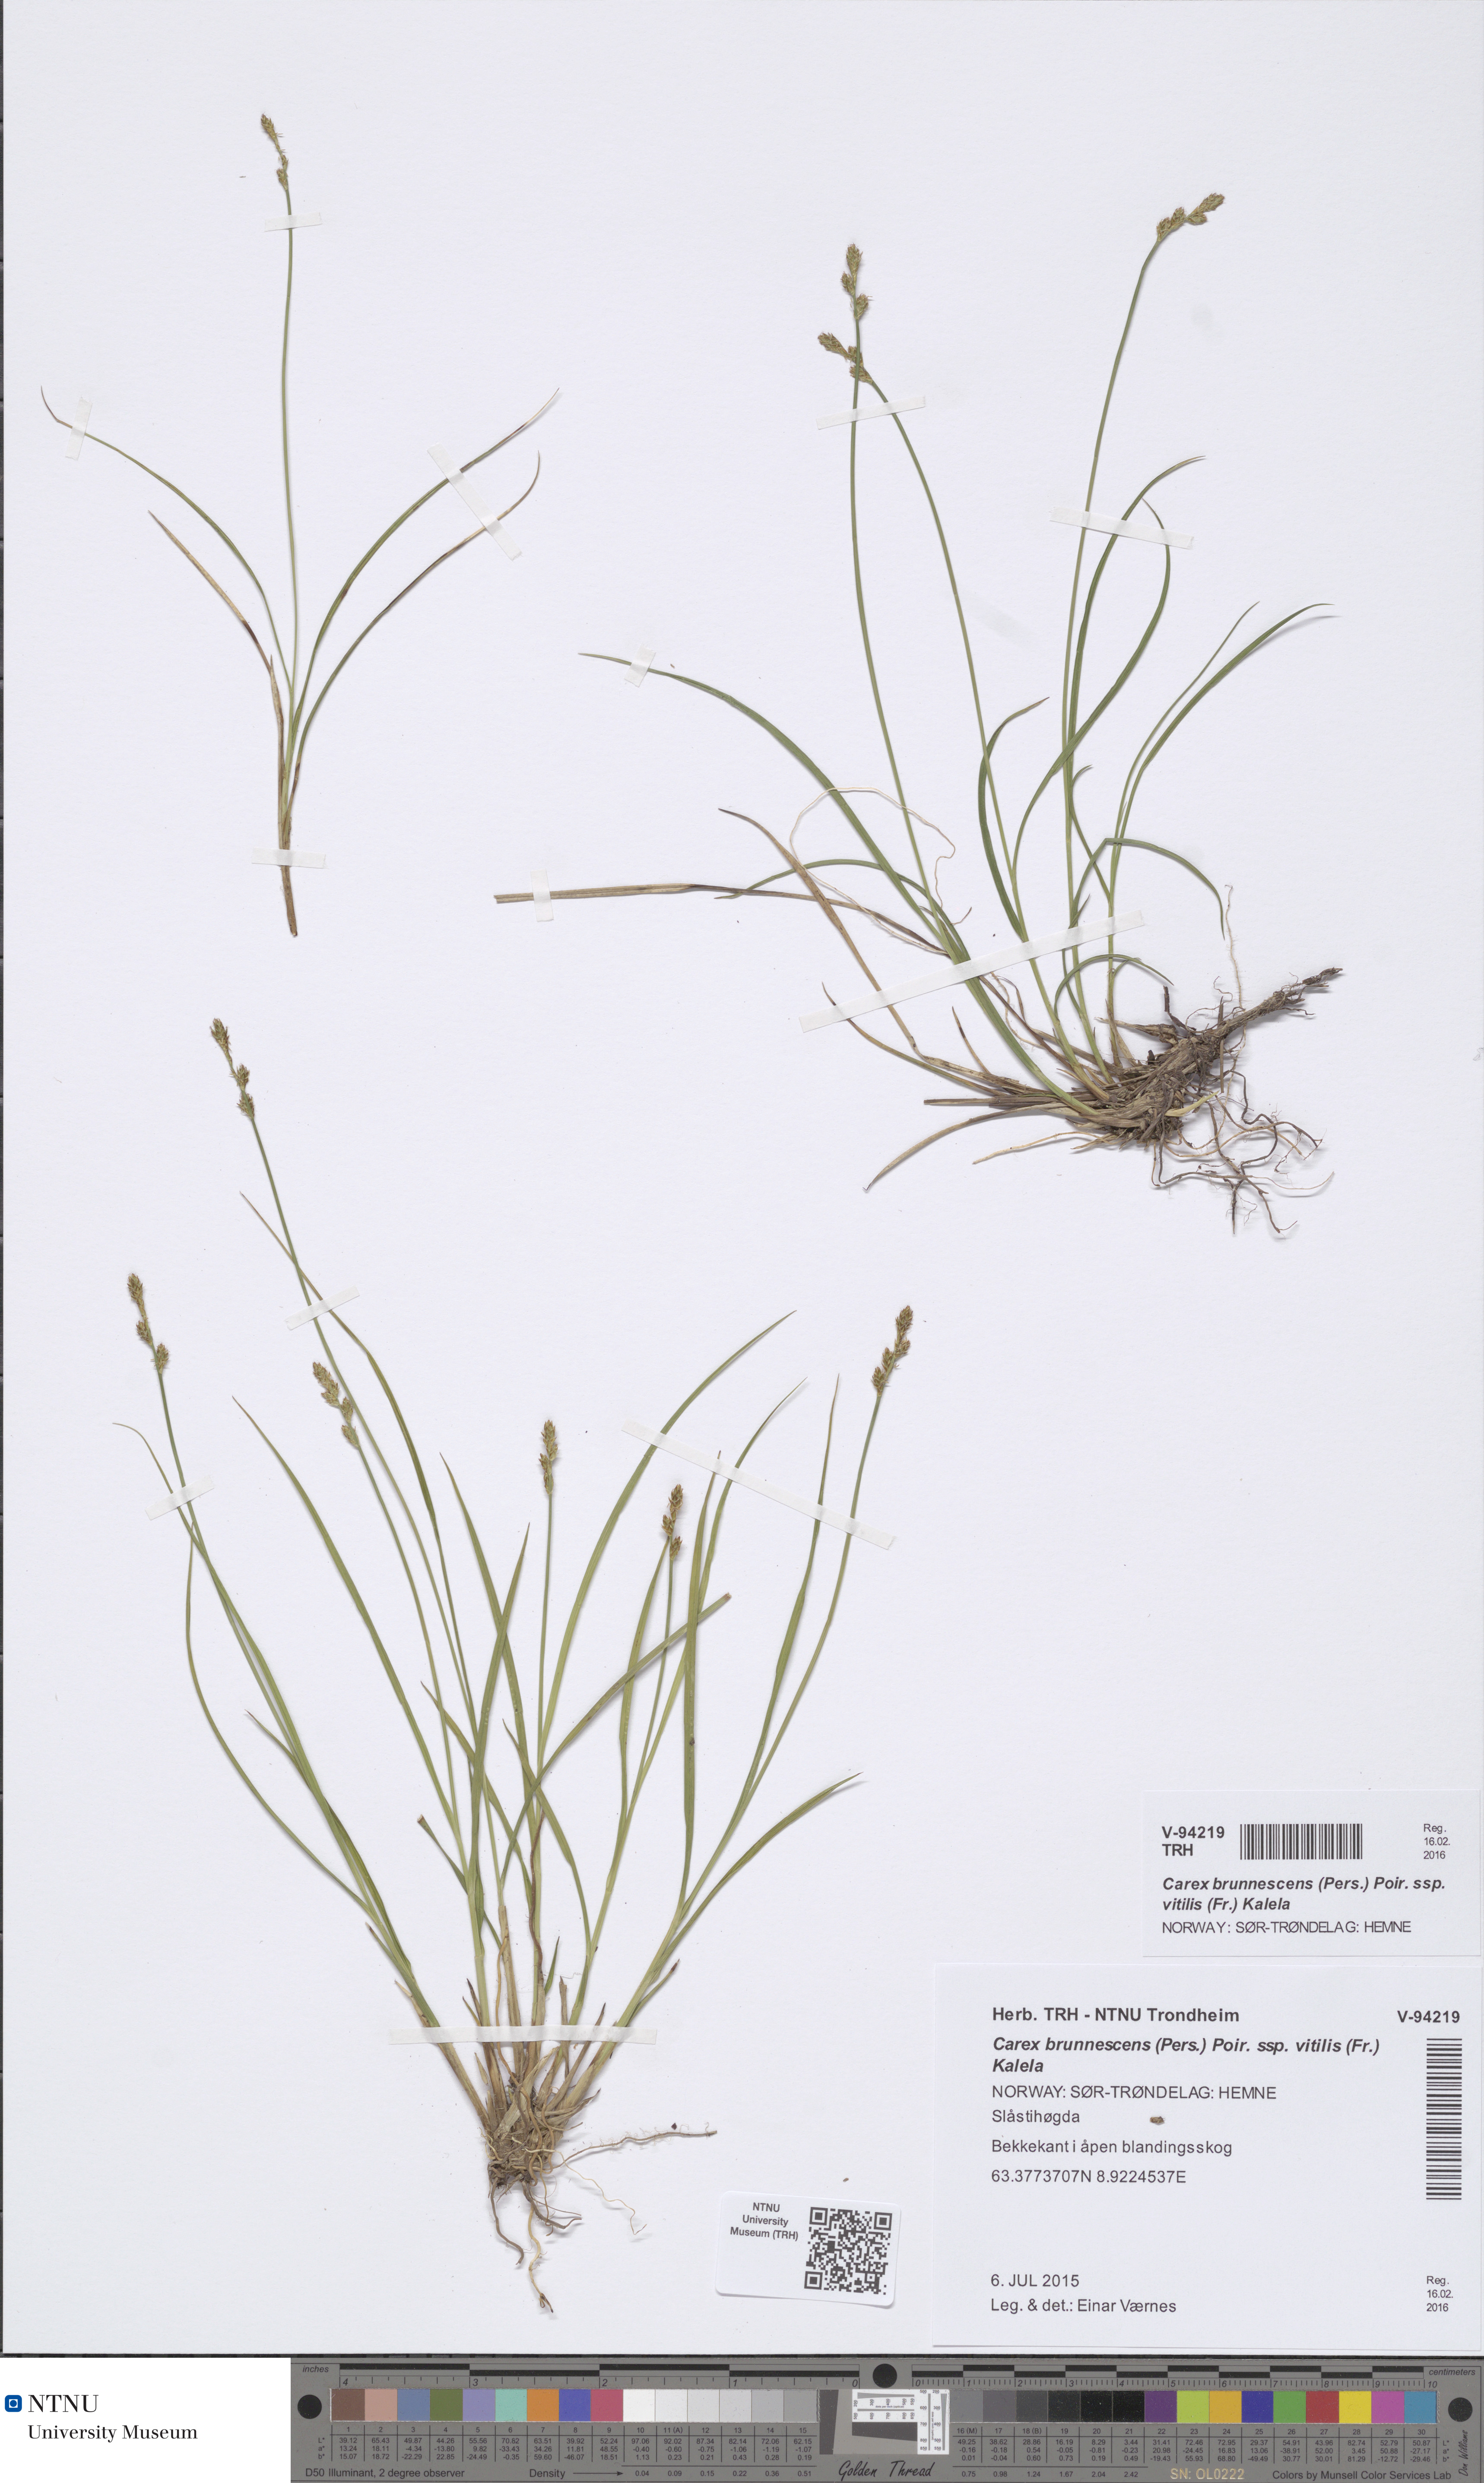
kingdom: Plantae
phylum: Tracheophyta
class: Liliopsida
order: Poales
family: Cyperaceae
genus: Carex
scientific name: Carex echinata
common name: Star sedge
